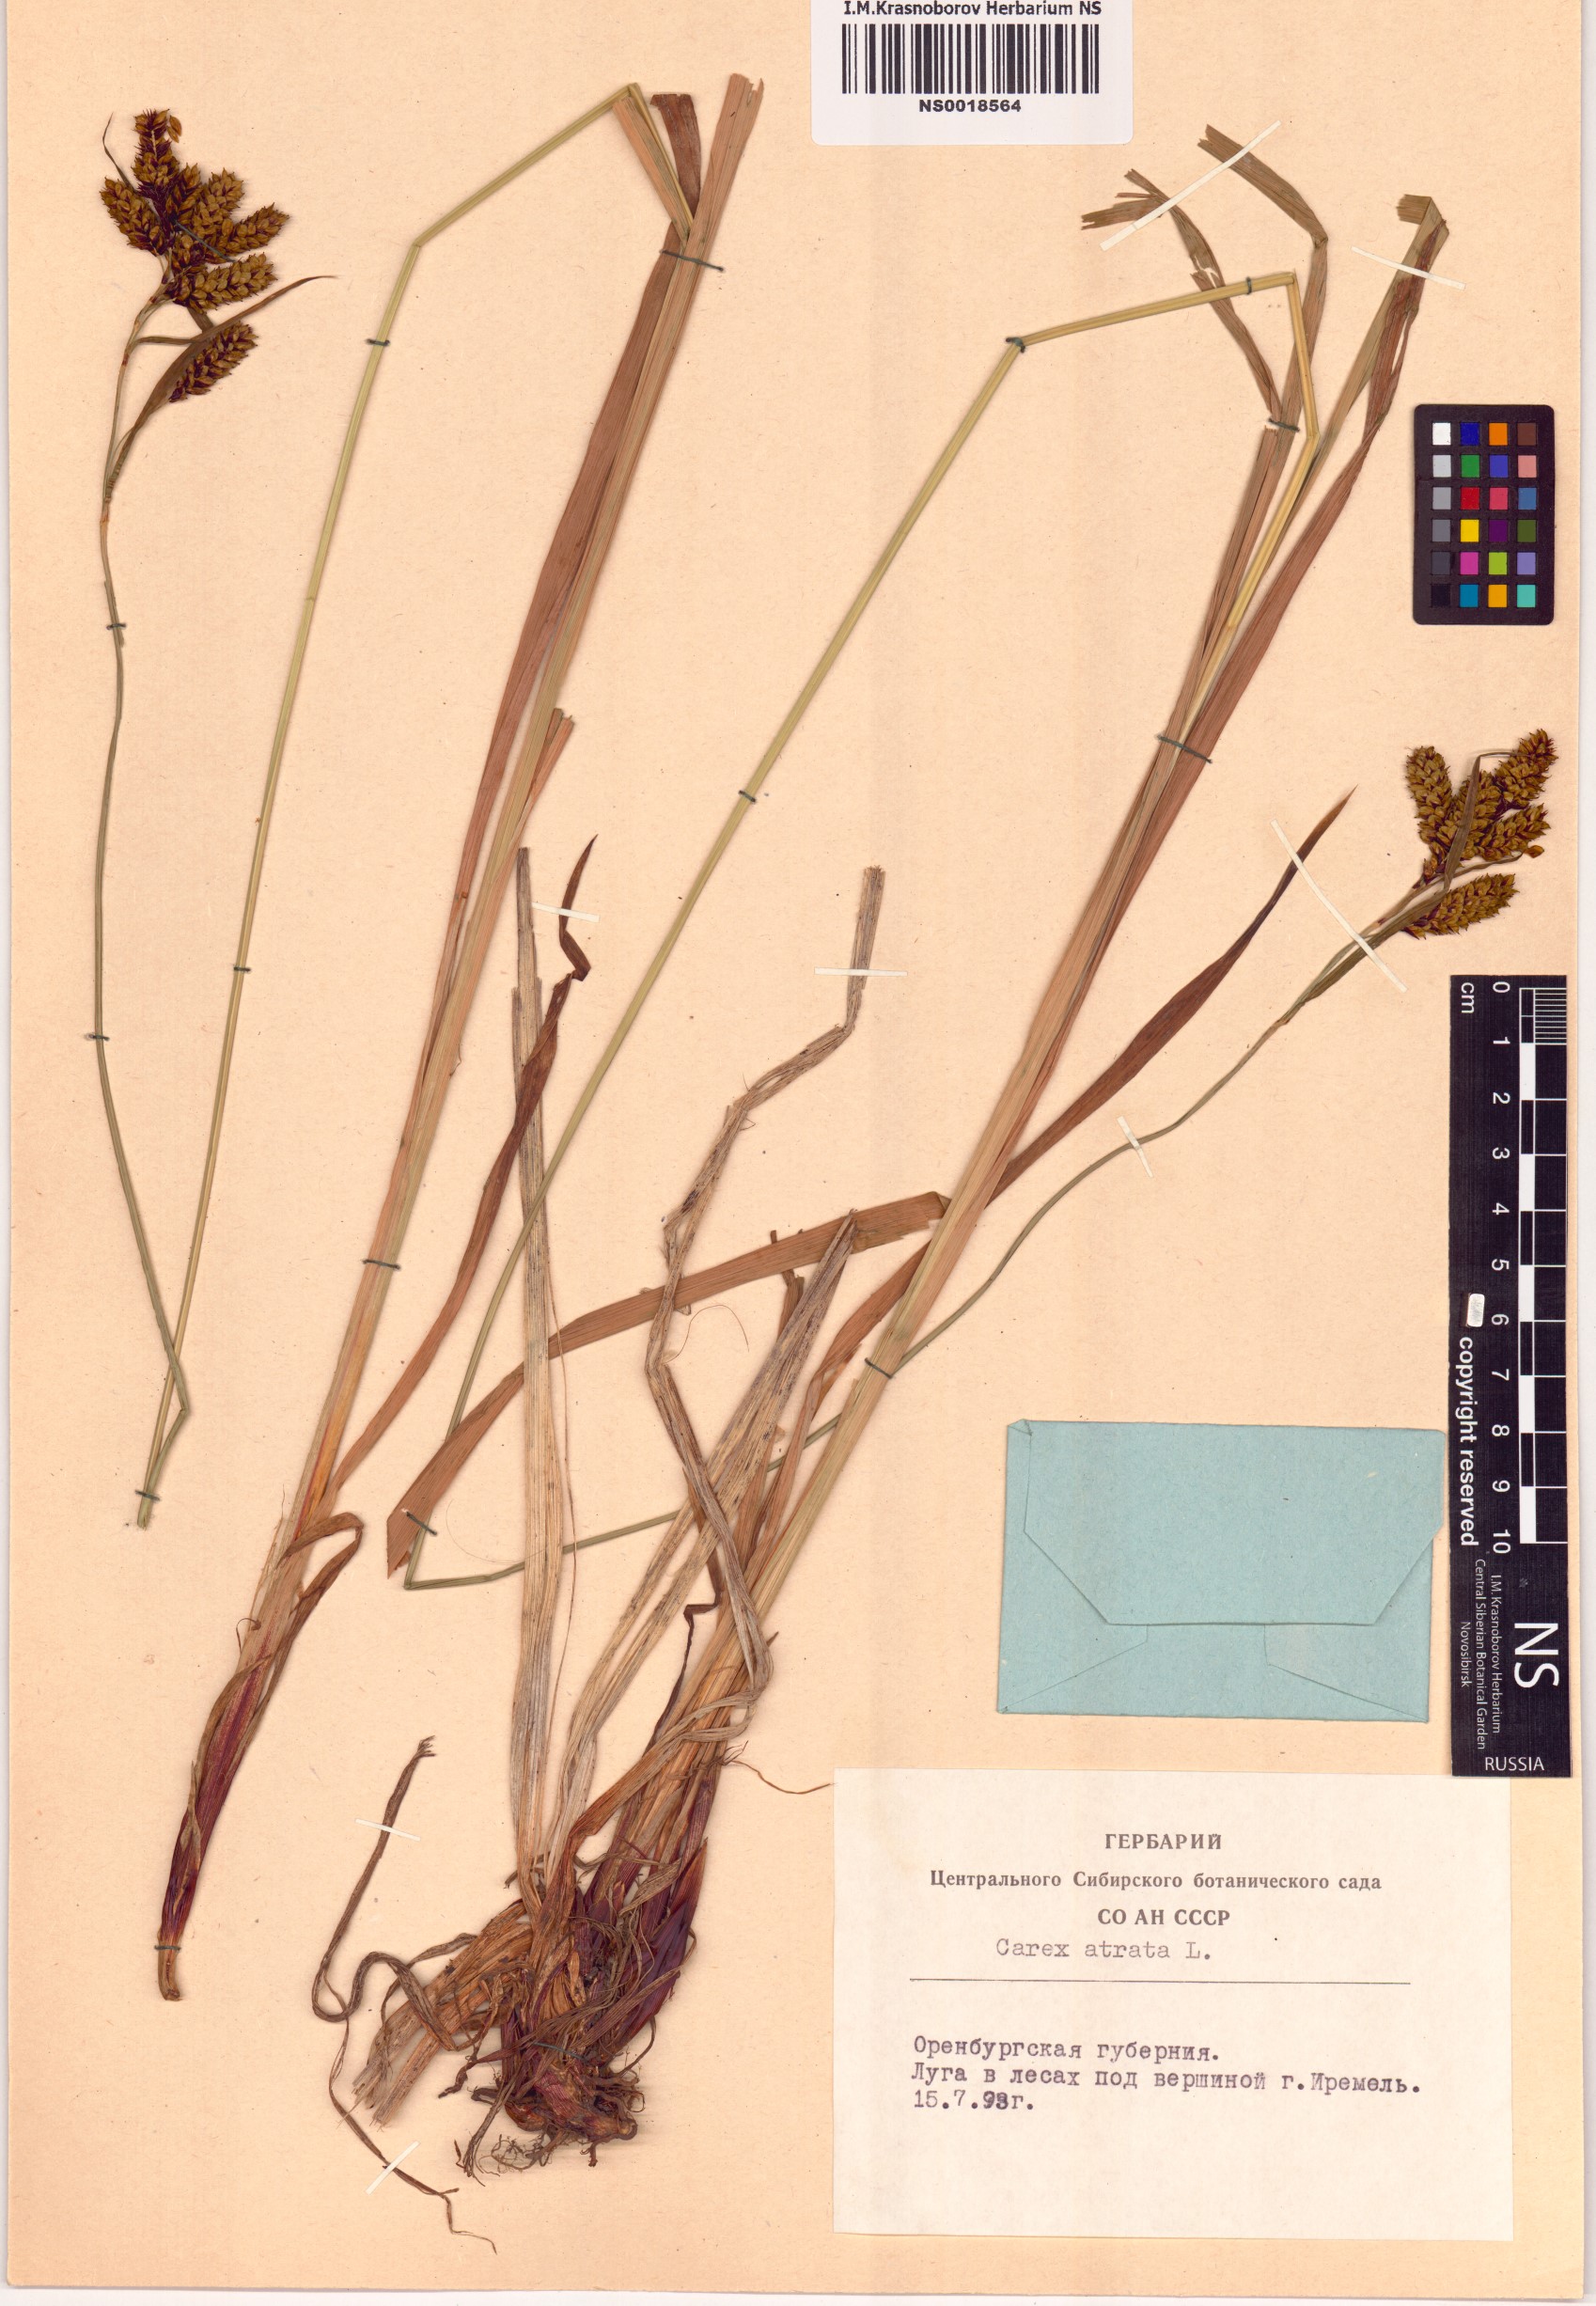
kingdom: Plantae
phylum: Tracheophyta
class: Liliopsida
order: Poales
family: Cyperaceae
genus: Carex
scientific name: Carex atrata
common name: Black alpine sedge
